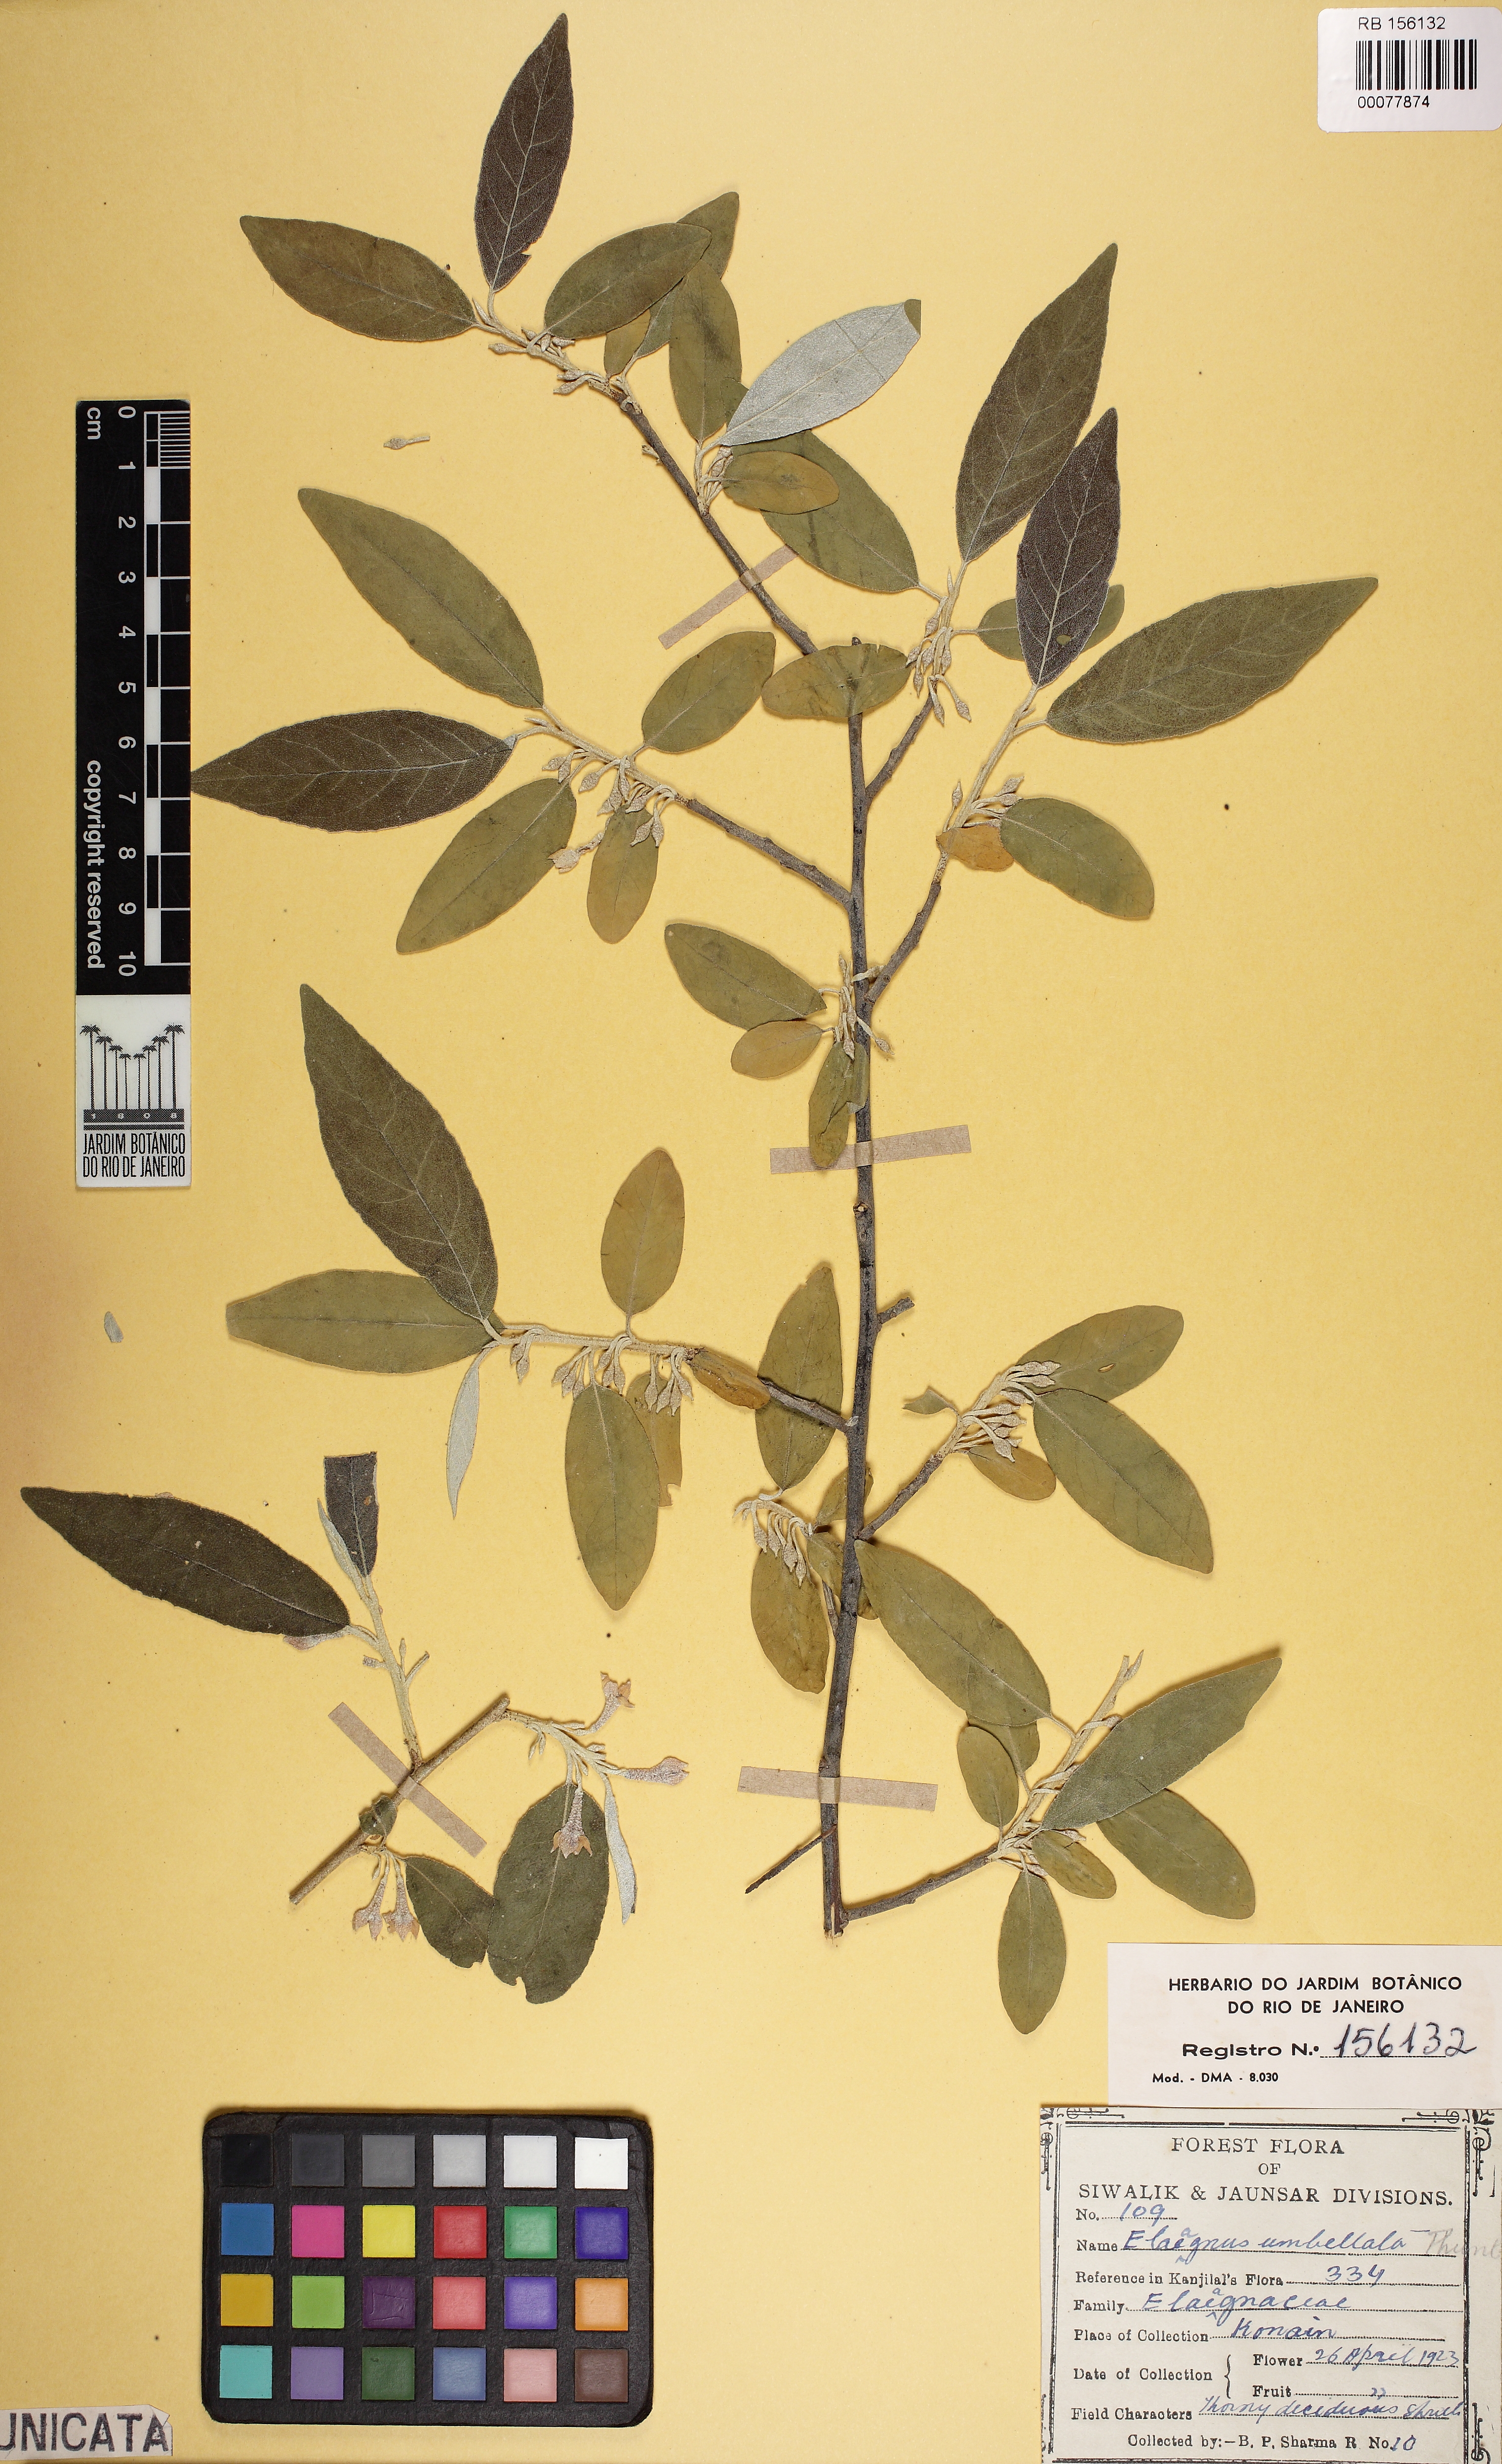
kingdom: Plantae
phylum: Tracheophyta
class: Magnoliopsida
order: Rosales
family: Elaeagnaceae
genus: Elaeagnus
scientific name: Elaeagnus umbellata
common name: Autumn olive
